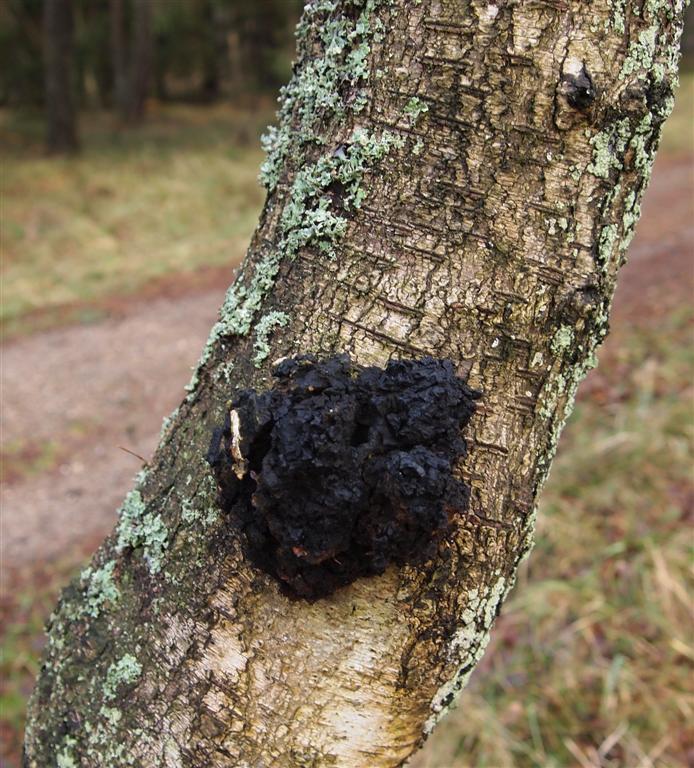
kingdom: Fungi
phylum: Basidiomycota
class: Agaricomycetes
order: Hymenochaetales
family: Hymenochaetaceae
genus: Inonotus
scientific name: Inonotus obliquus
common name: birke-spejlporesvamp
